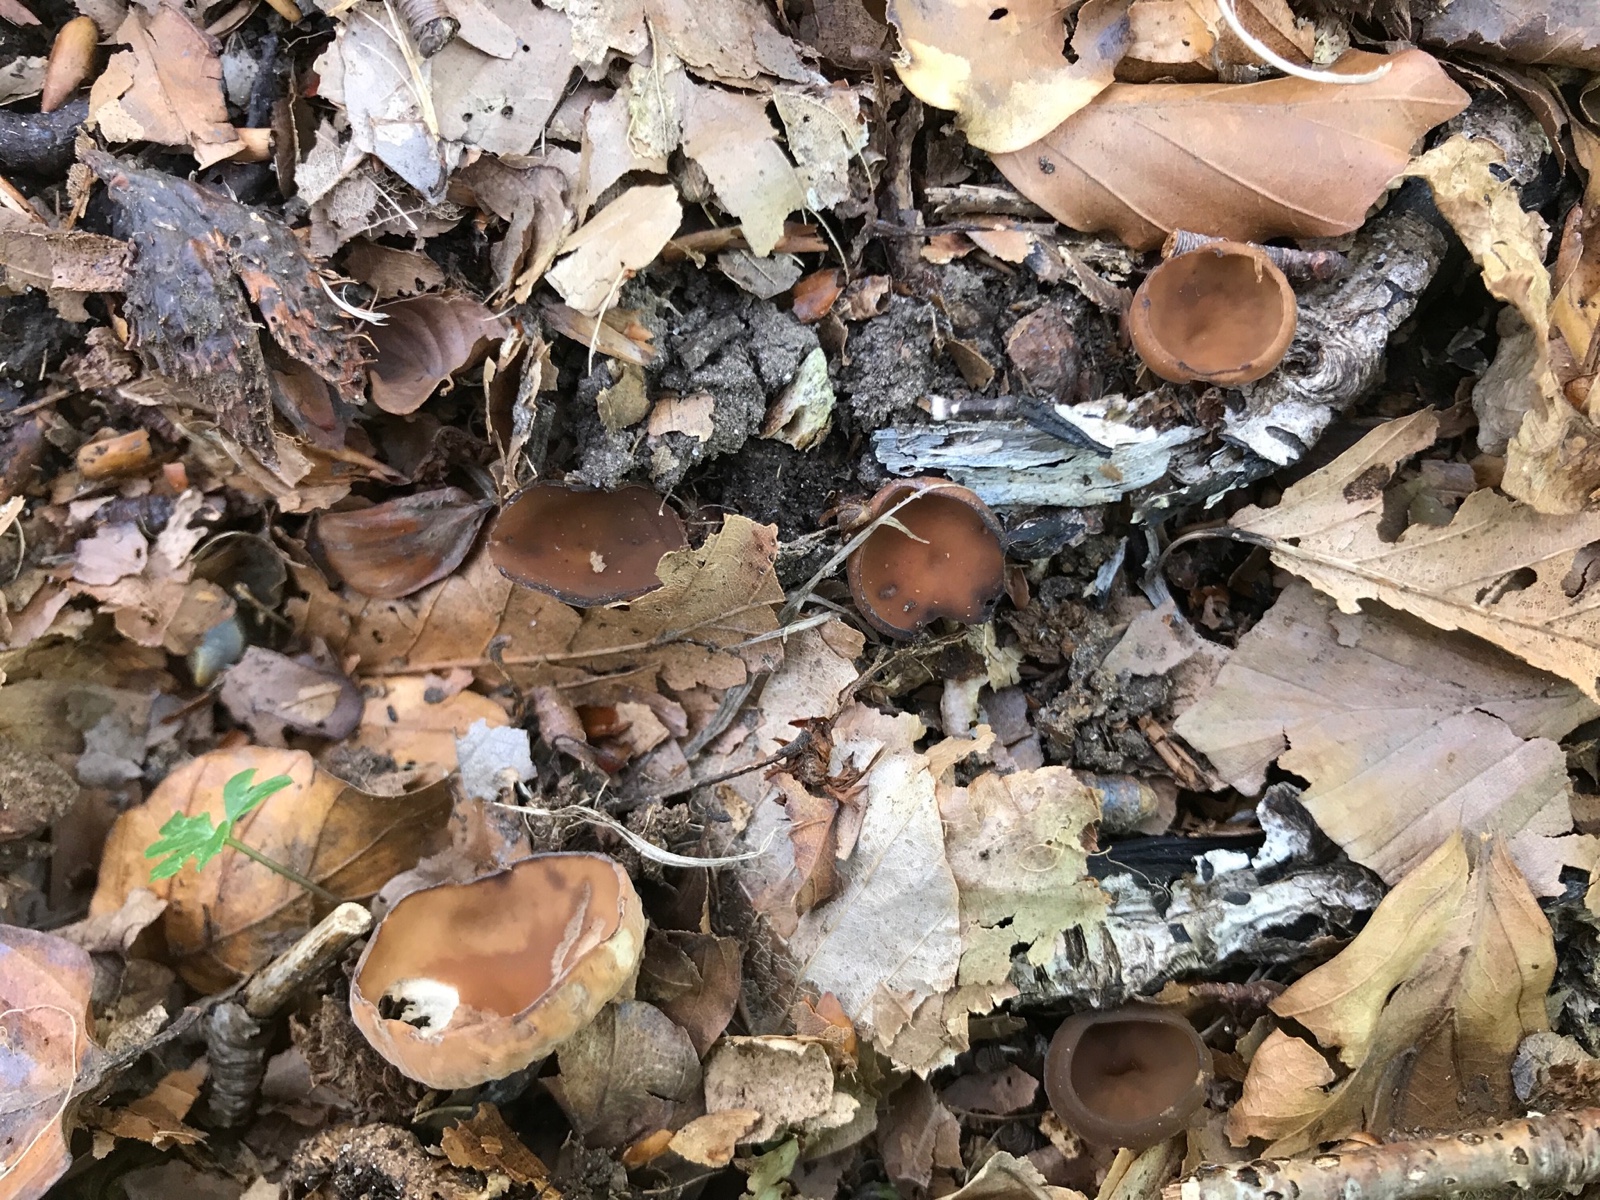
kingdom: Fungi
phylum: Ascomycota
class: Leotiomycetes
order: Helotiales
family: Sclerotiniaceae
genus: Dumontinia
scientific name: Dumontinia tuberosa
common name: anemone-knoldskive
